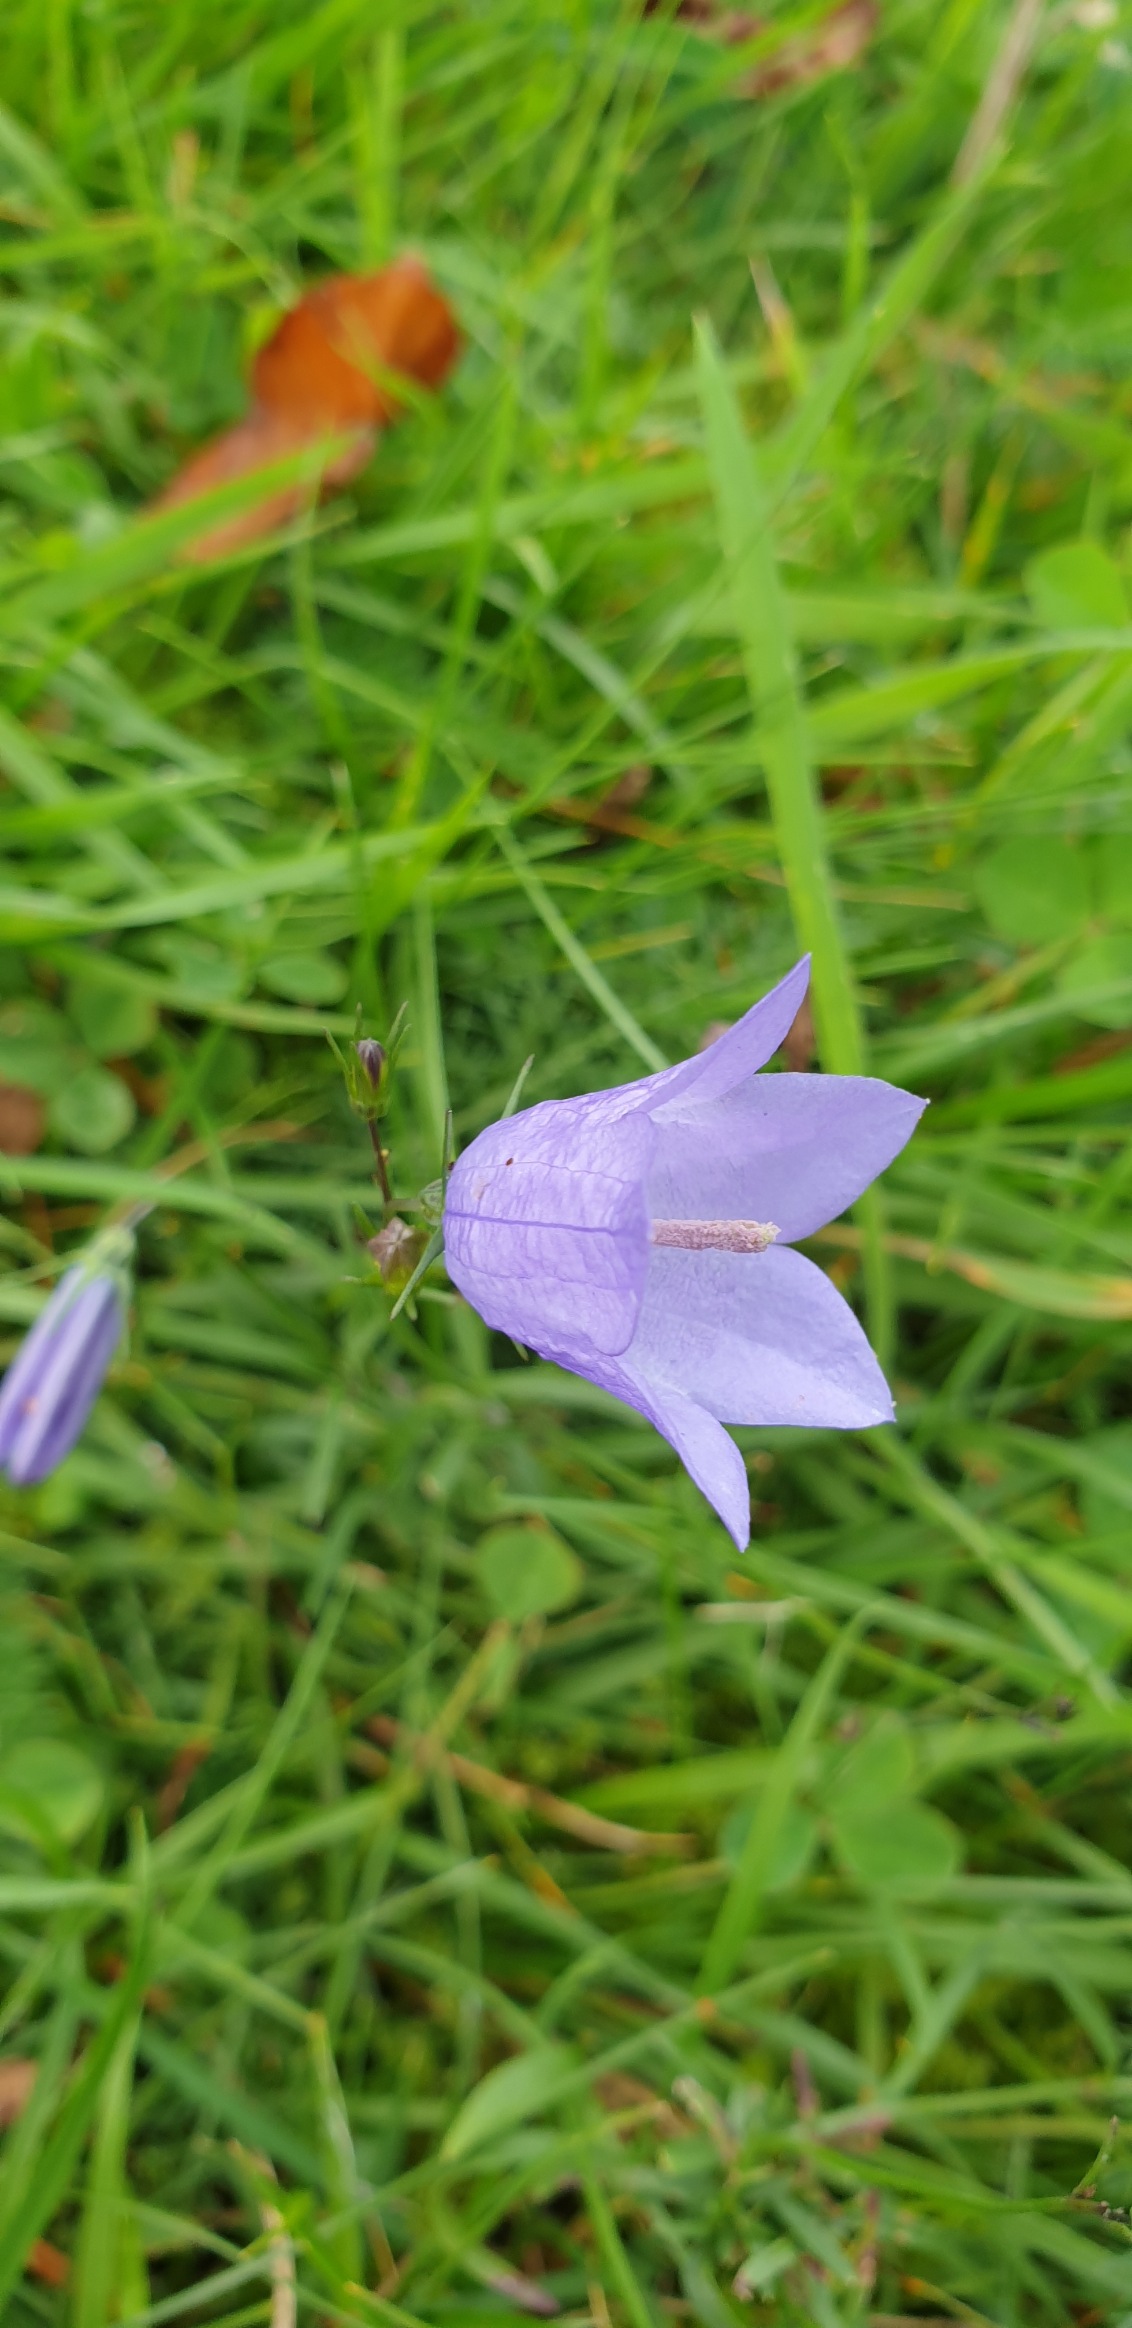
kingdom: Plantae
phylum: Tracheophyta
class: Magnoliopsida
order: Asterales
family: Campanulaceae
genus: Campanula
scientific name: Campanula rotundifolia
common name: Liden klokke
